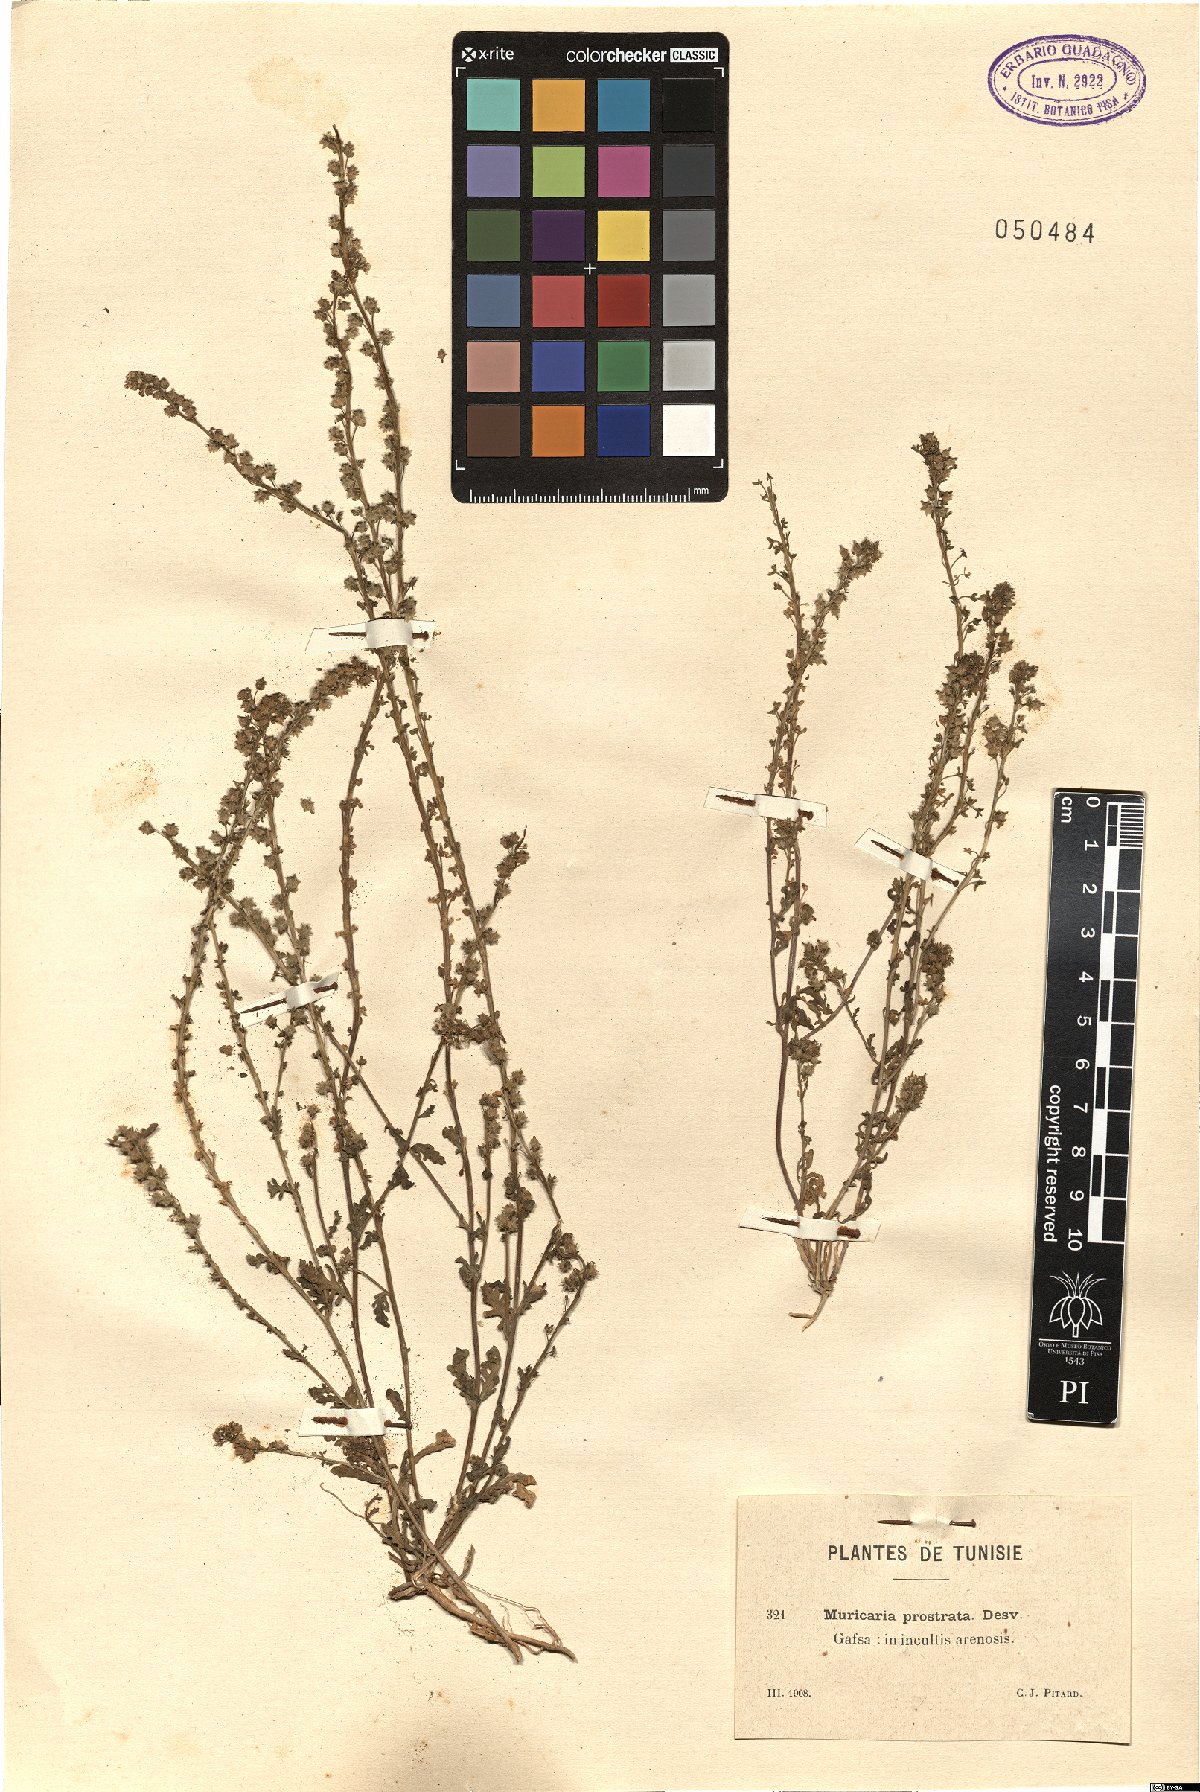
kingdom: Plantae
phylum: Tracheophyta
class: Magnoliopsida
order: Brassicales
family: Brassicaceae
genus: Muricaria
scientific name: Muricaria prostrata
